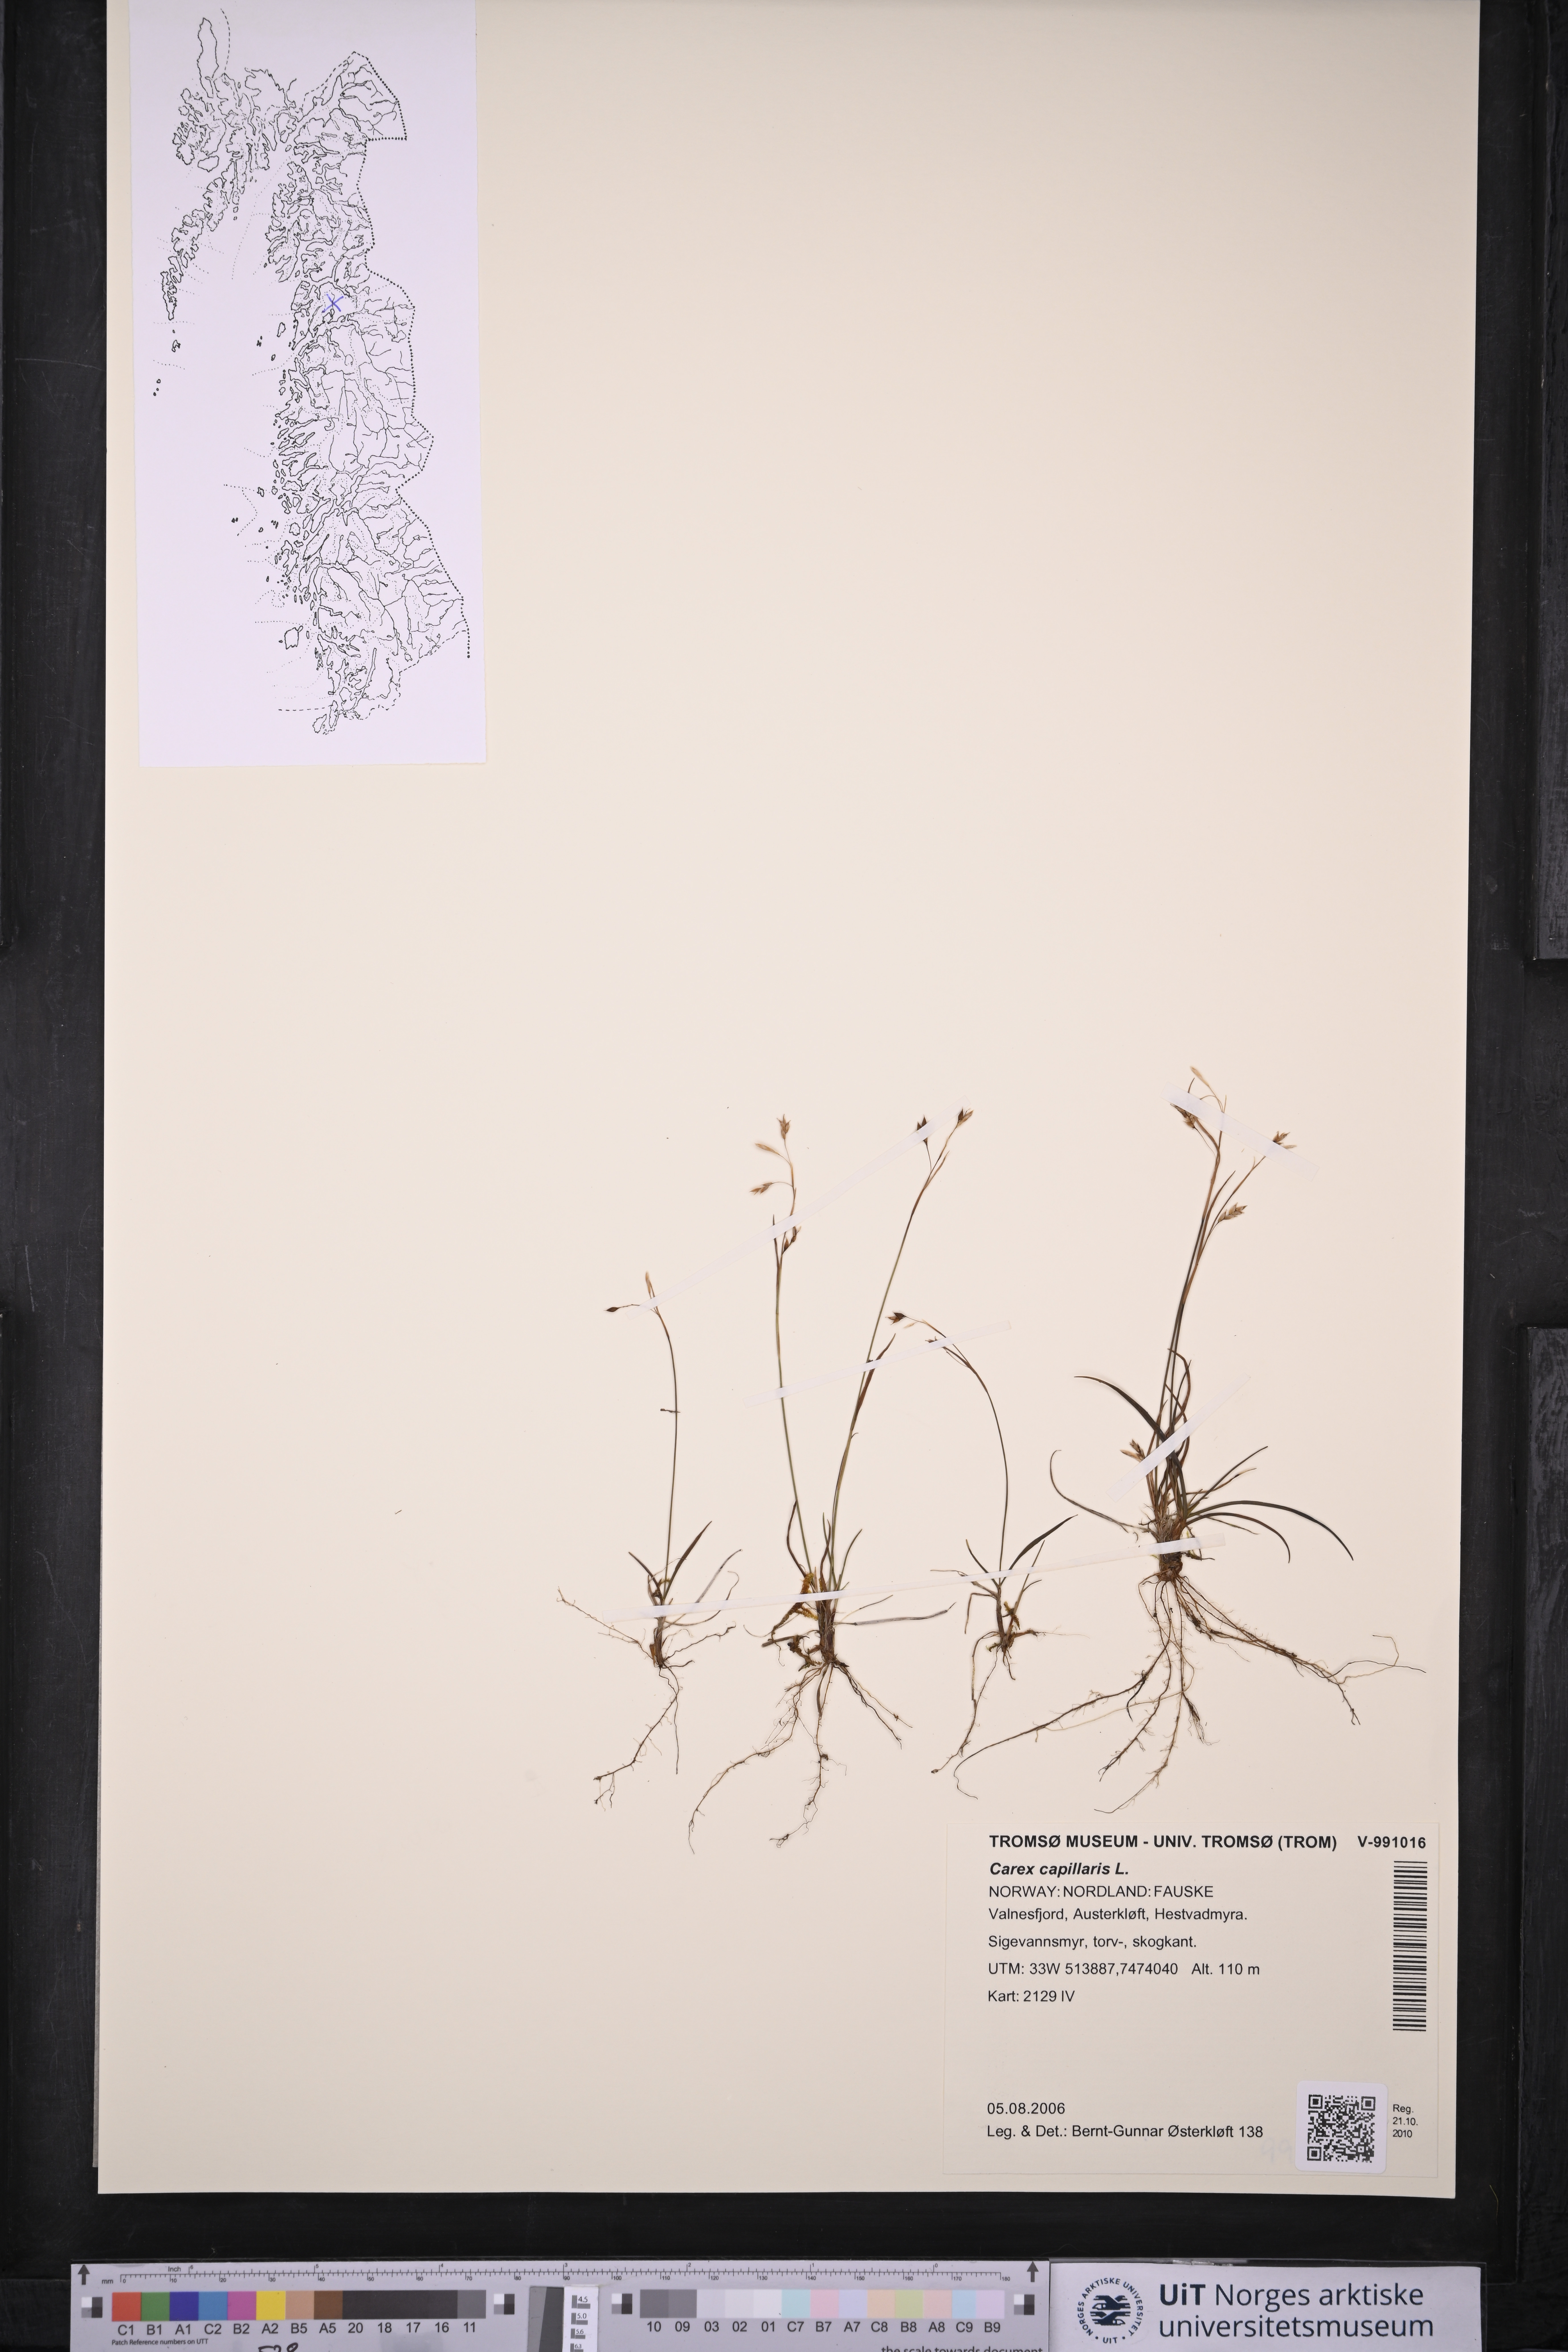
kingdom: Plantae
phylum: Tracheophyta
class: Liliopsida
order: Poales
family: Cyperaceae
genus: Carex
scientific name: Carex capillaris
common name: Hair sedge
